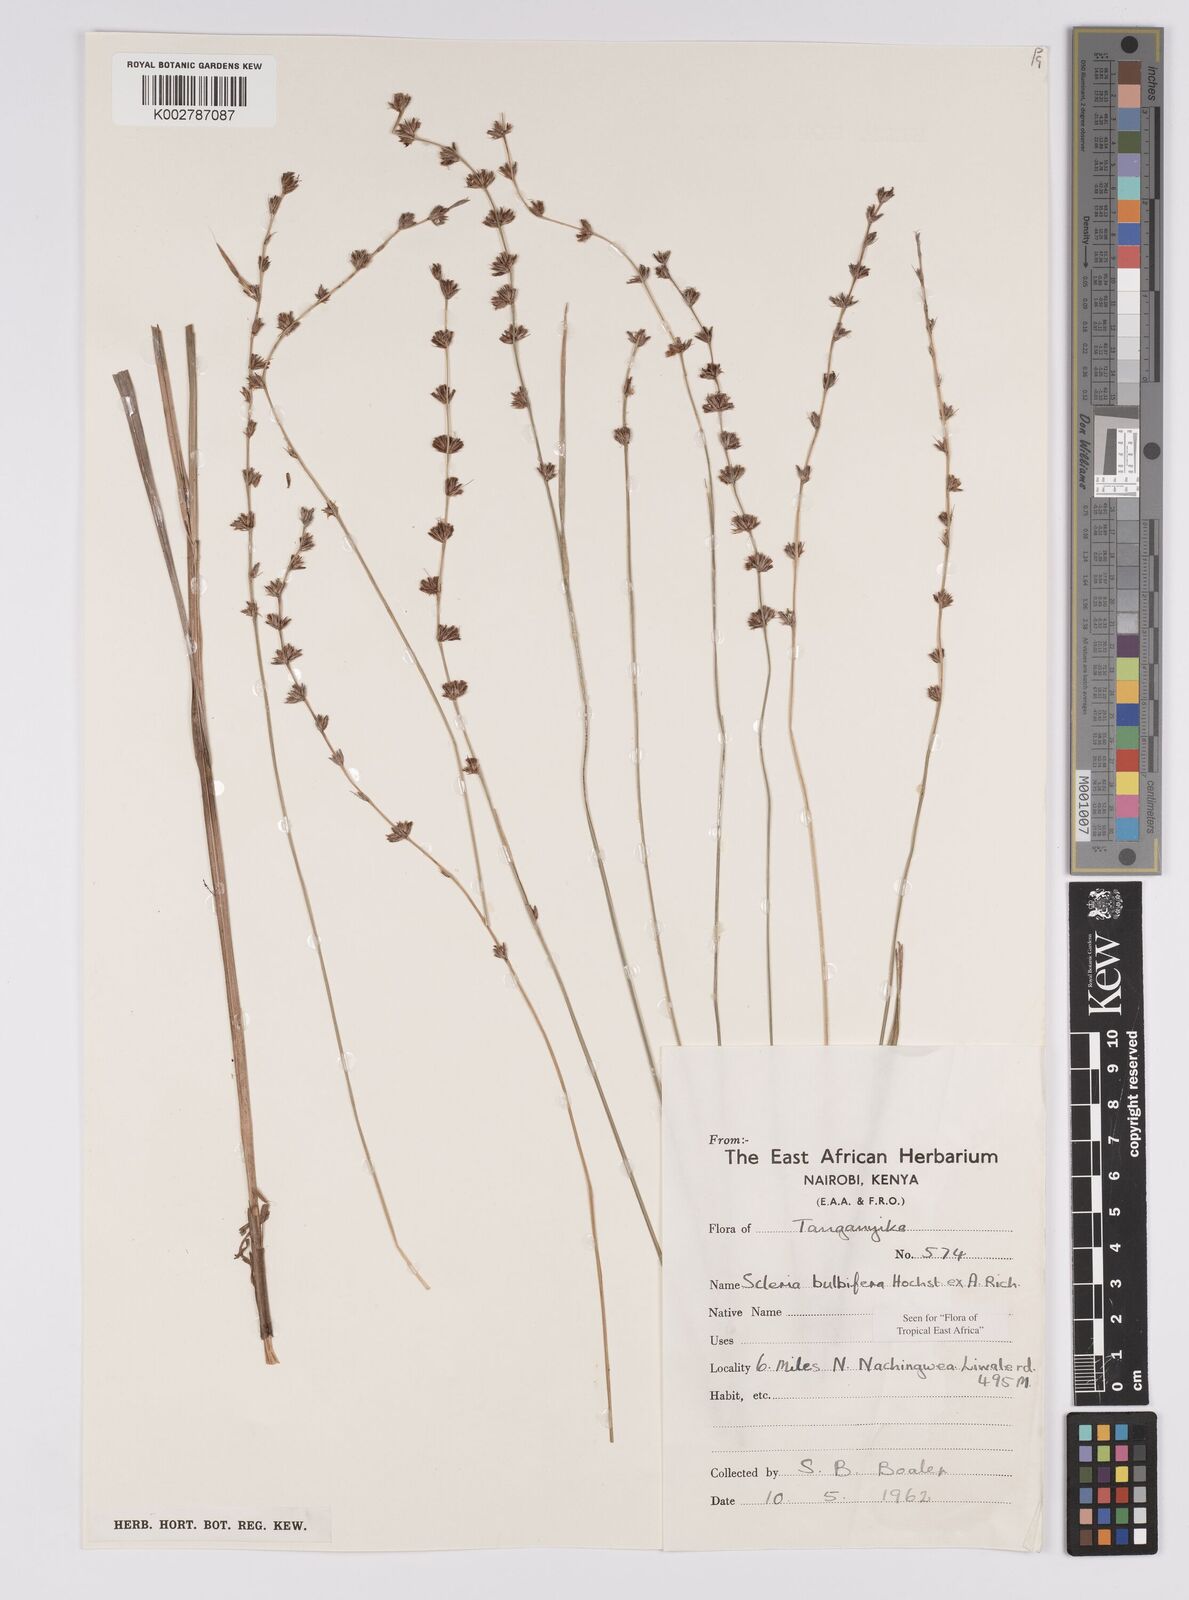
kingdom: Plantae
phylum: Tracheophyta
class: Liliopsida
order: Poales
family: Cyperaceae
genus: Scleria
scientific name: Scleria bulbifera
